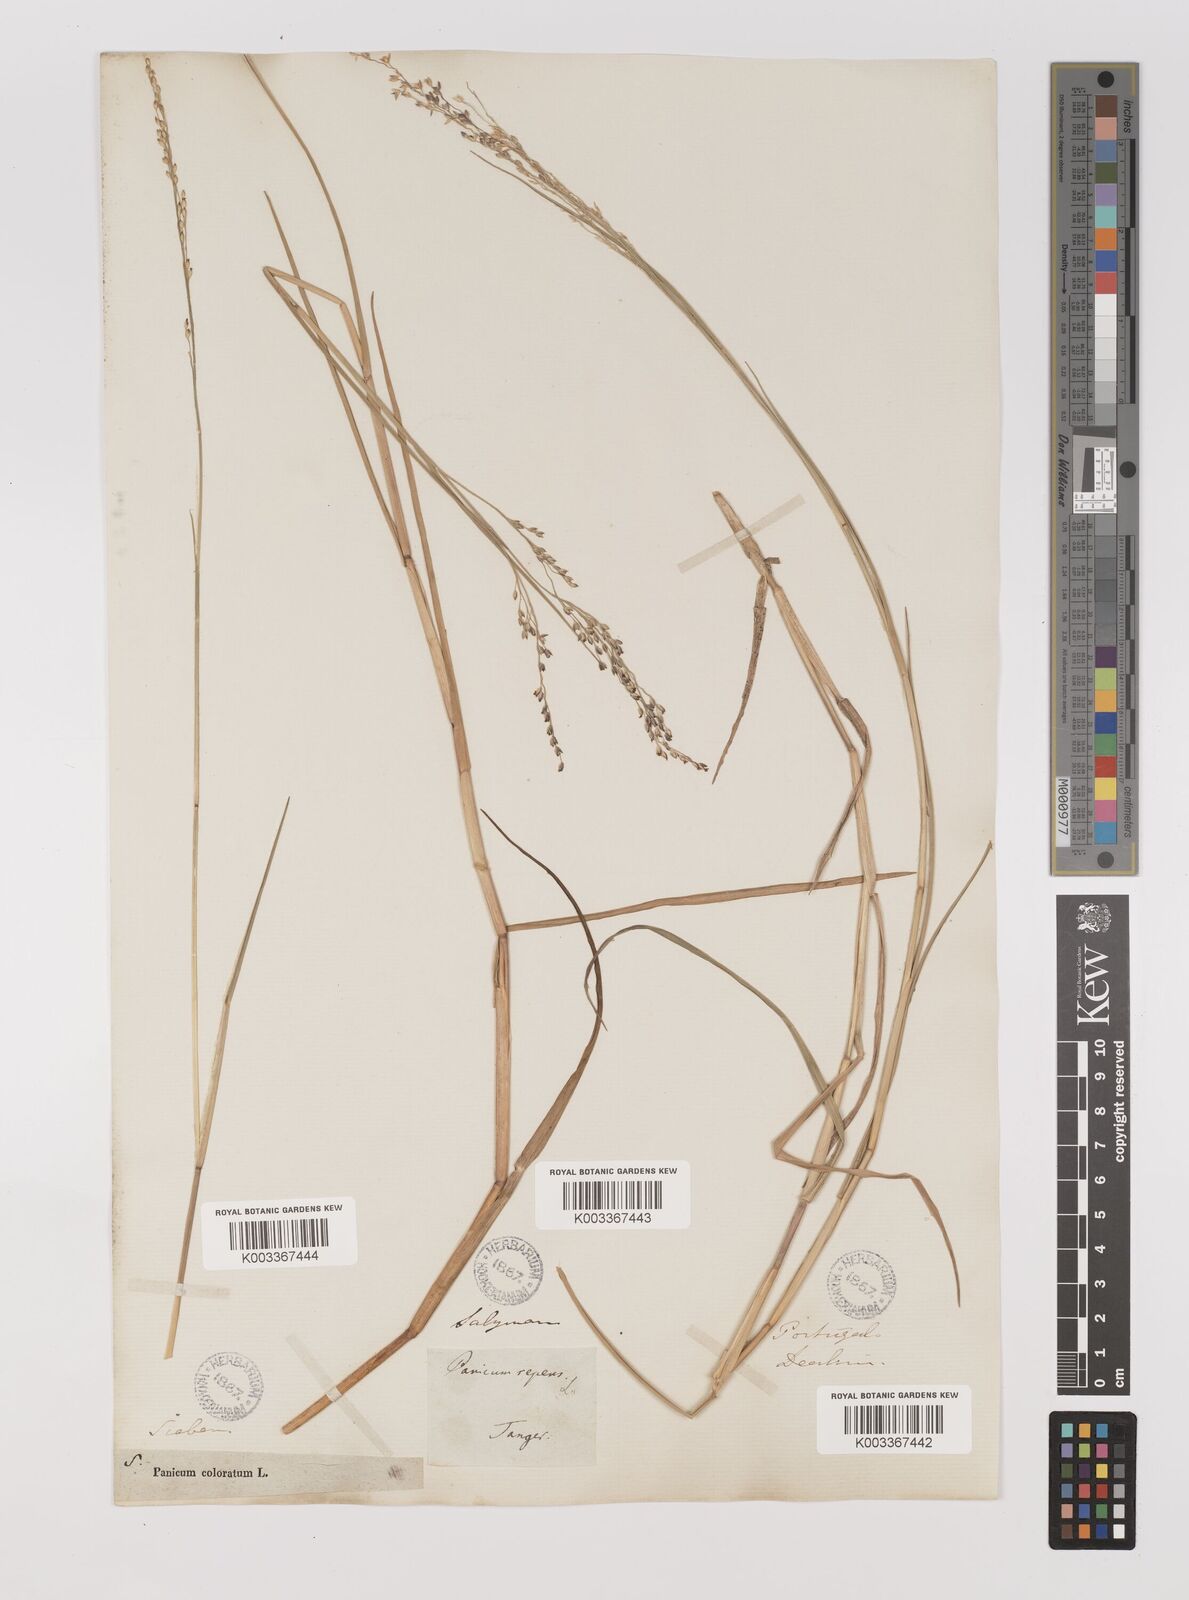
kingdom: Plantae
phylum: Tracheophyta
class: Liliopsida
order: Poales
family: Poaceae
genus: Panicum
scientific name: Panicum repens
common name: Torpedo grass
